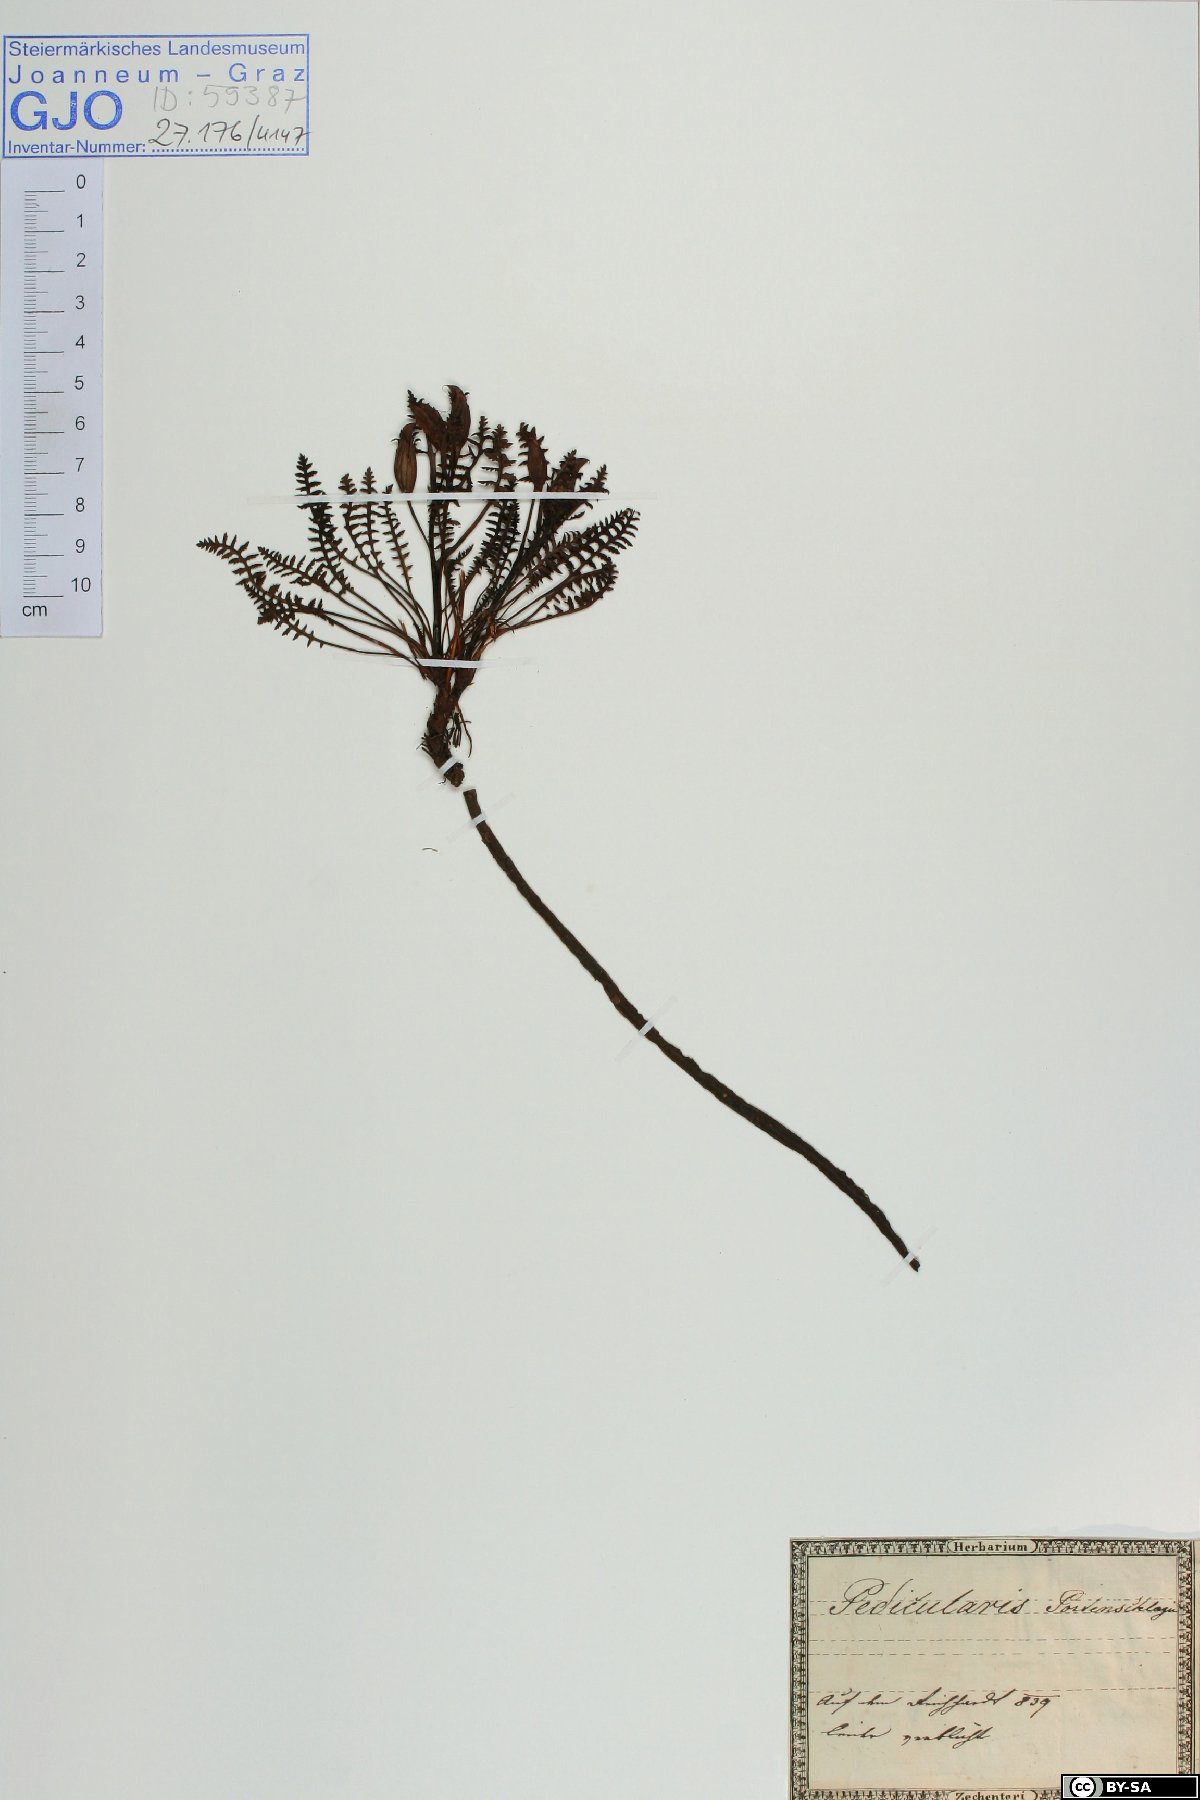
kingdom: Plantae
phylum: Tracheophyta
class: Magnoliopsida
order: Lamiales
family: Orobanchaceae
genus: Pedicularis
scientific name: Pedicularis portenschlagii
